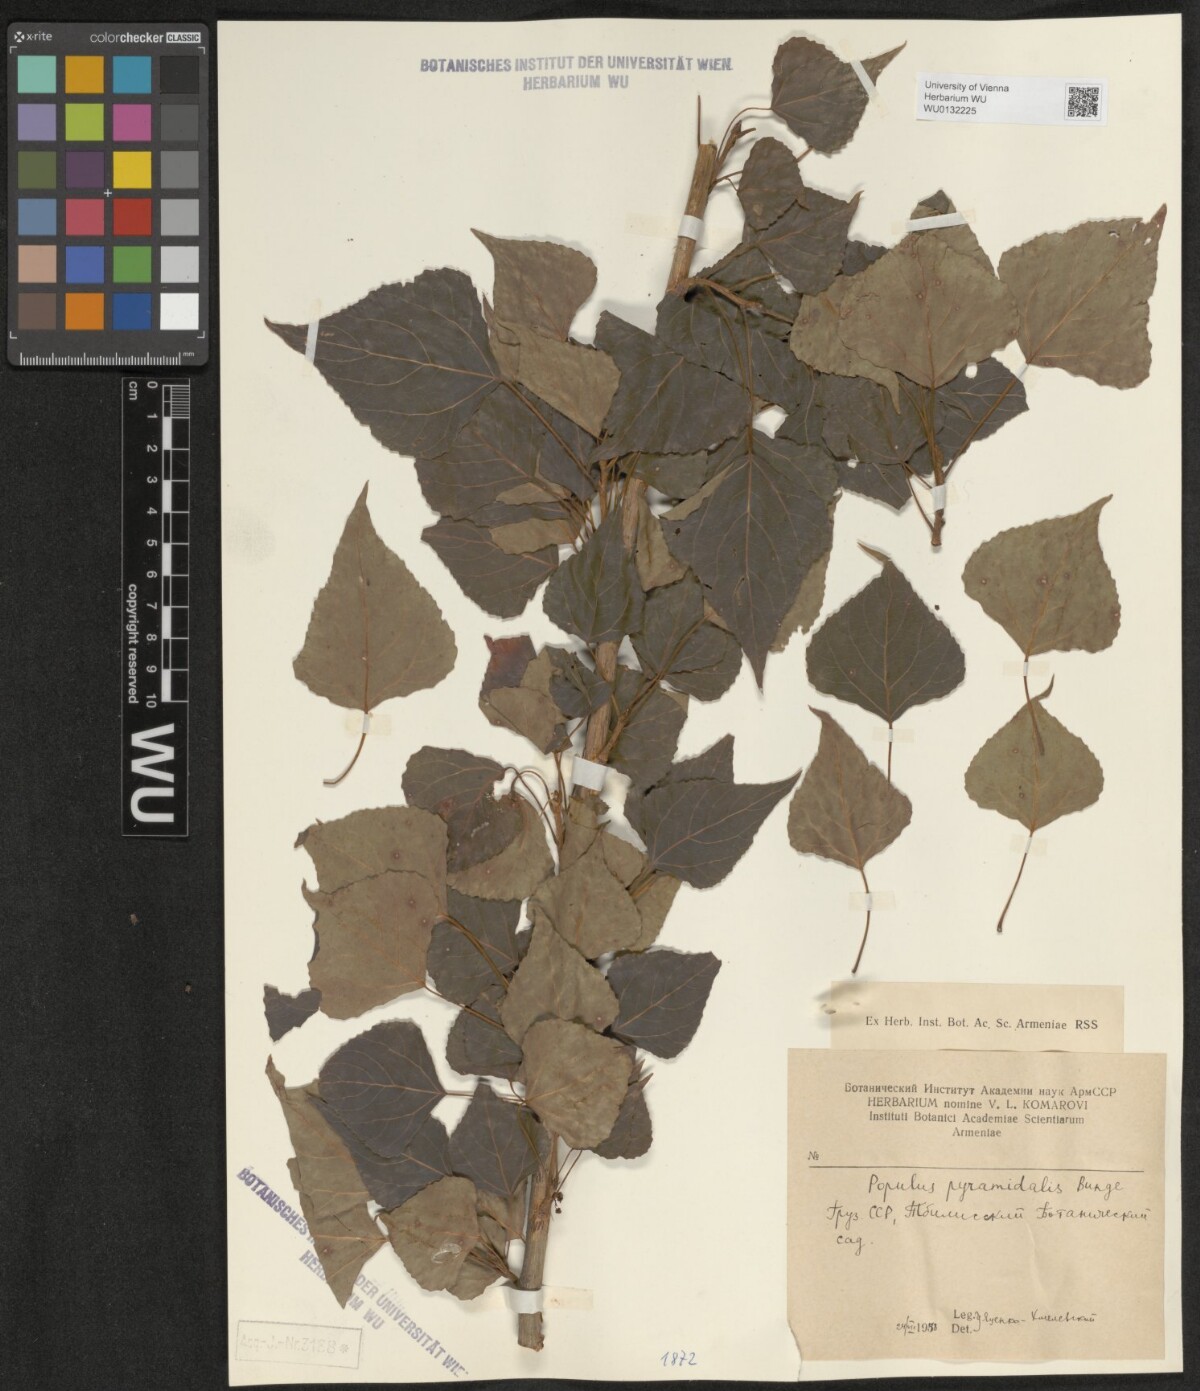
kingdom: Plantae
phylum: Tracheophyta
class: Magnoliopsida
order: Malpighiales
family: Salicaceae
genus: Populus
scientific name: Populus nigra
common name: Black poplar
